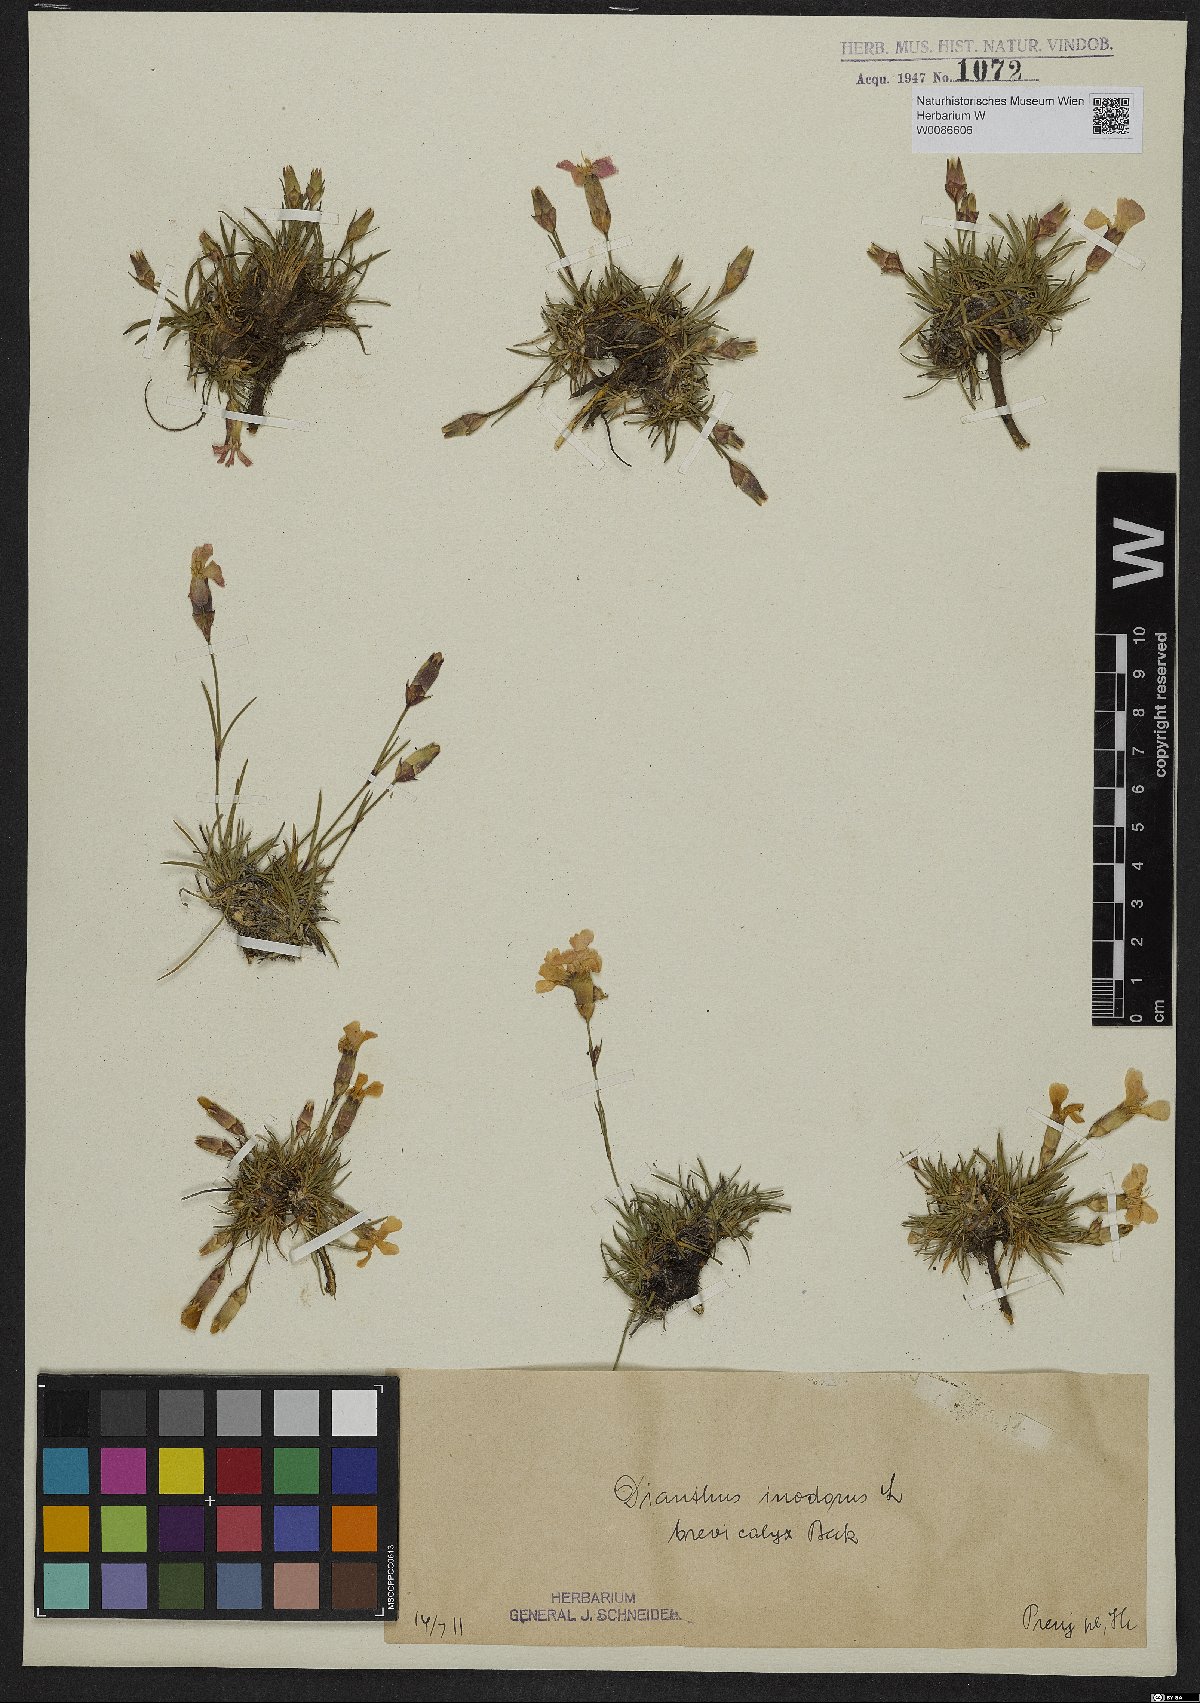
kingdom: Plantae
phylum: Tracheophyta
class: Magnoliopsida
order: Caryophyllales
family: Caryophyllaceae
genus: Dianthus
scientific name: Dianthus sylvestris
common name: Wood pink
